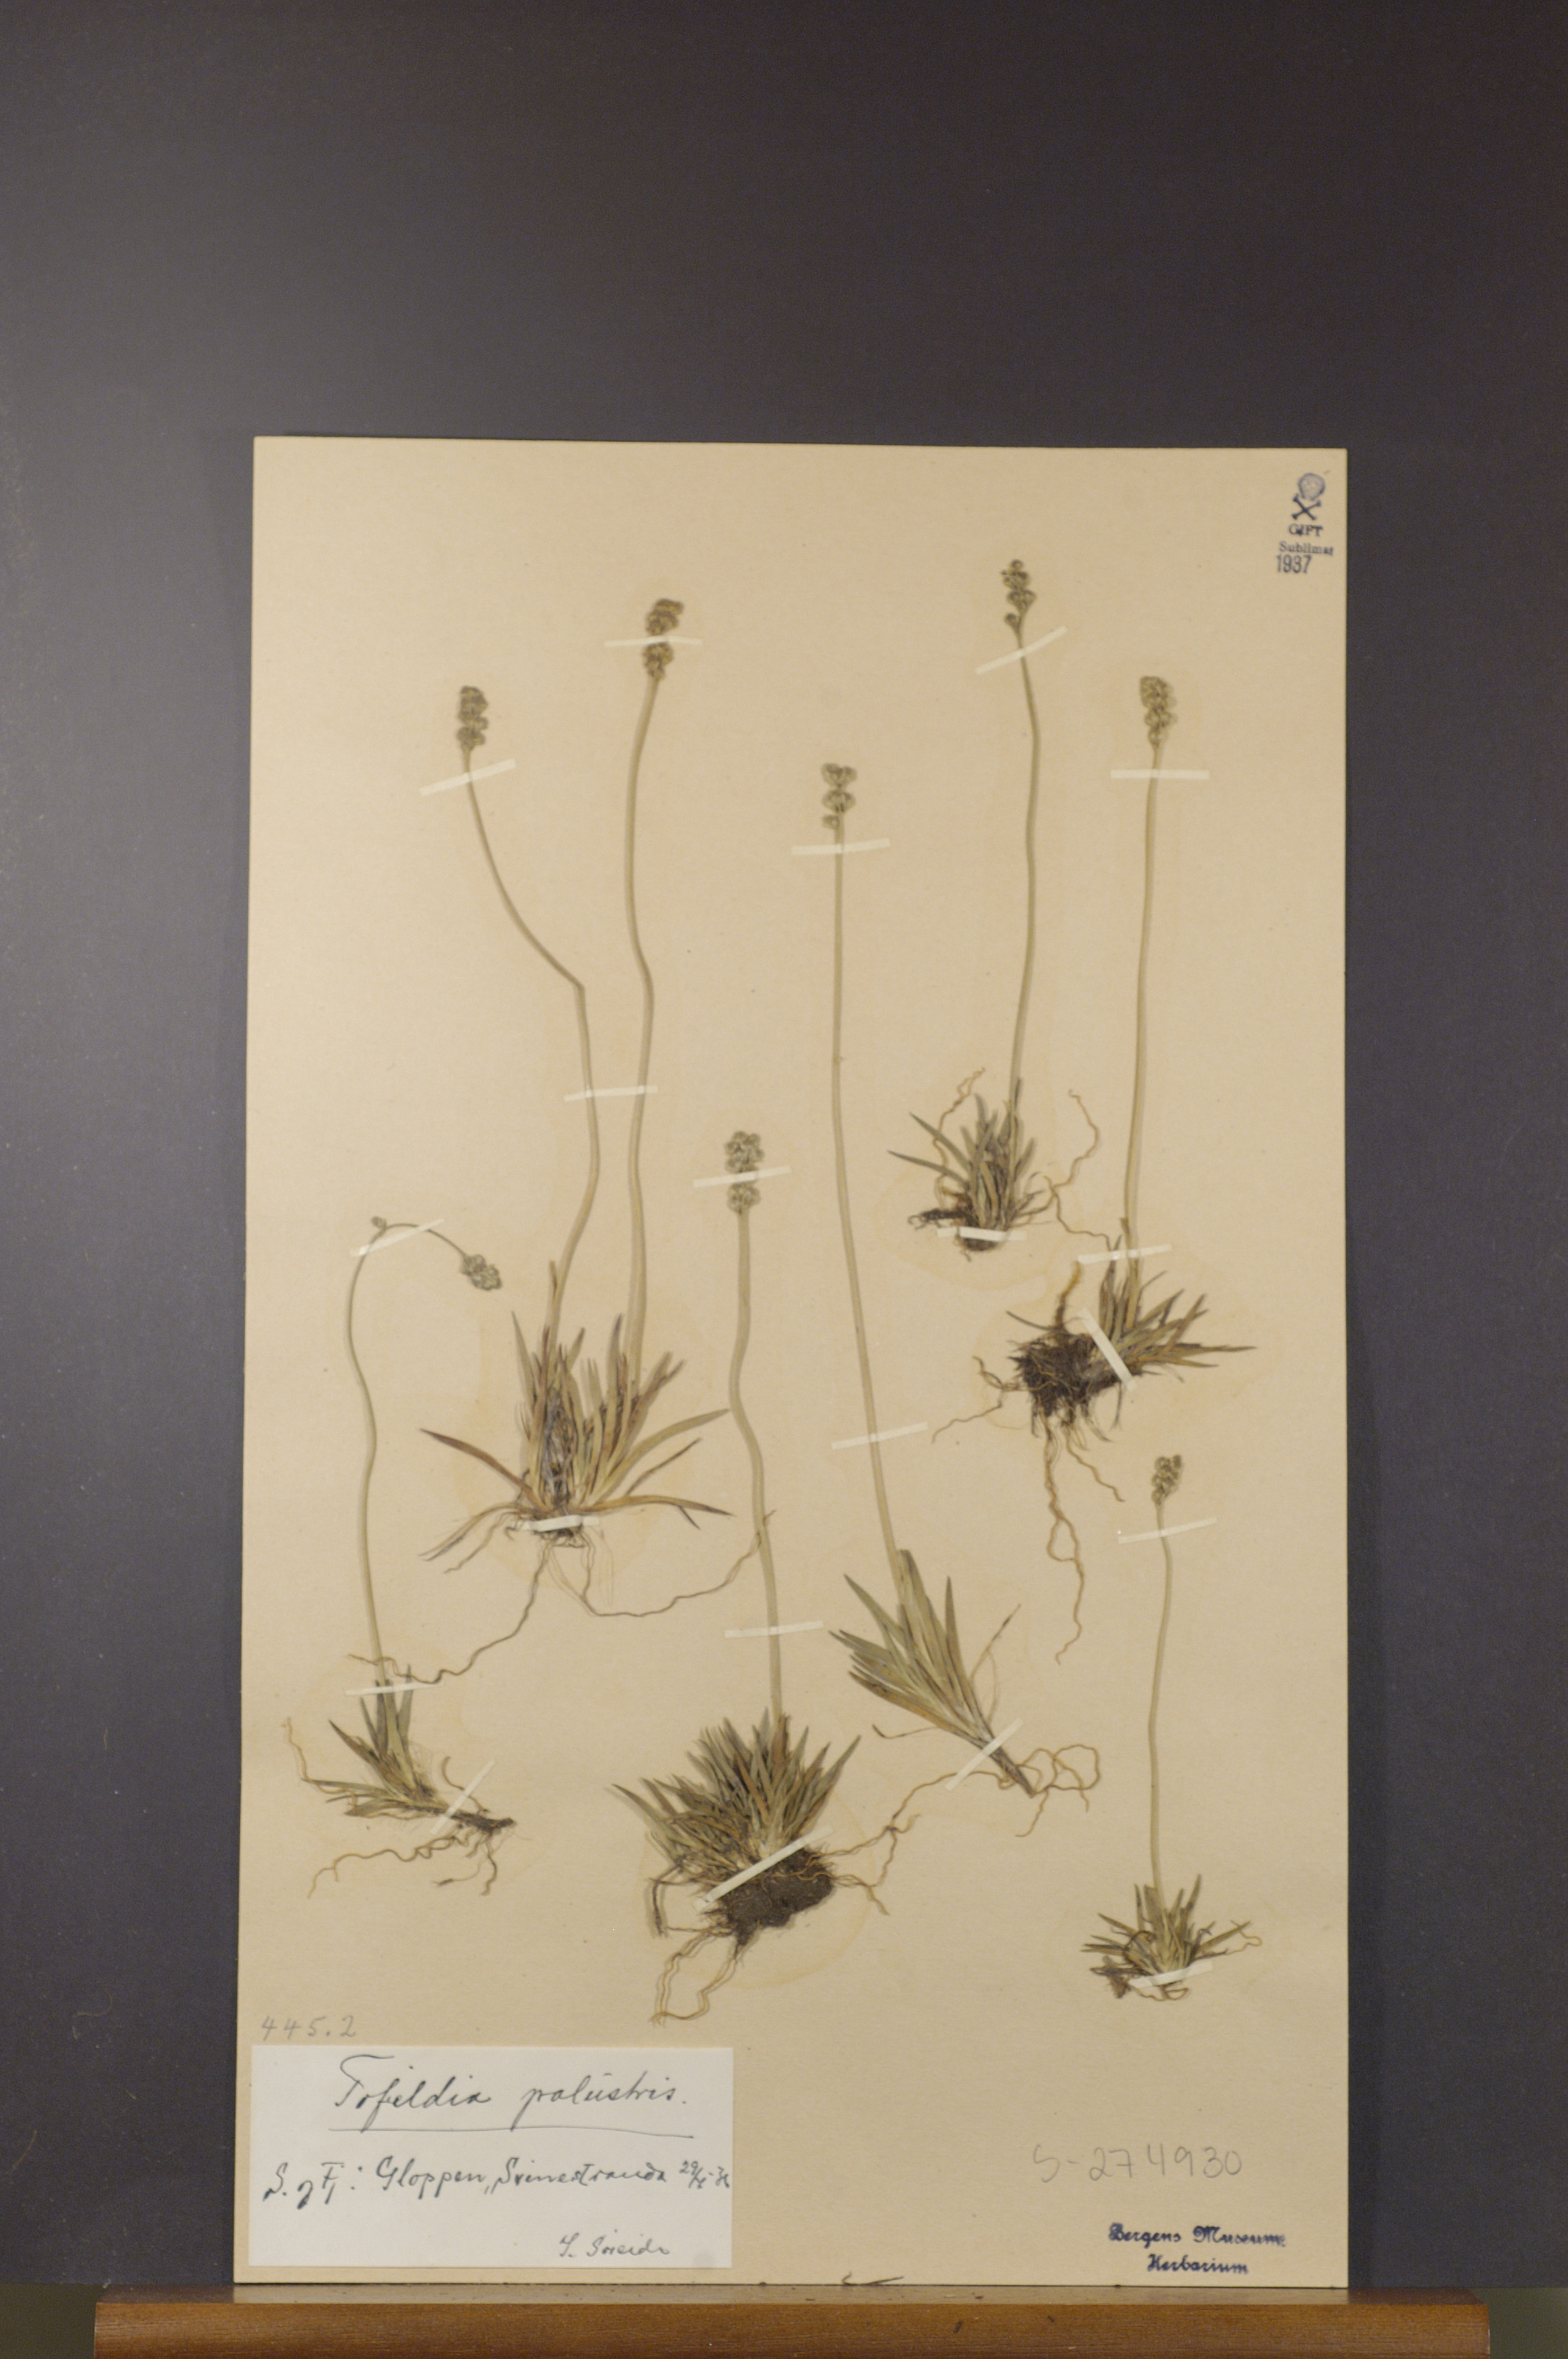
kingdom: Plantae
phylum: Tracheophyta
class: Liliopsida
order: Alismatales
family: Tofieldiaceae
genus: Tofieldia
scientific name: Tofieldia pusilla
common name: Scottish false asphodel
